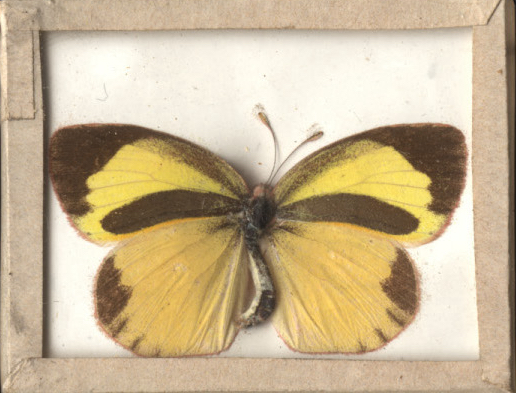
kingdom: Animalia
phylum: Arthropoda
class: Insecta
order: Lepidoptera
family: Pieridae
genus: Eurema
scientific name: Eurema daira
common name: Barred Yellow
